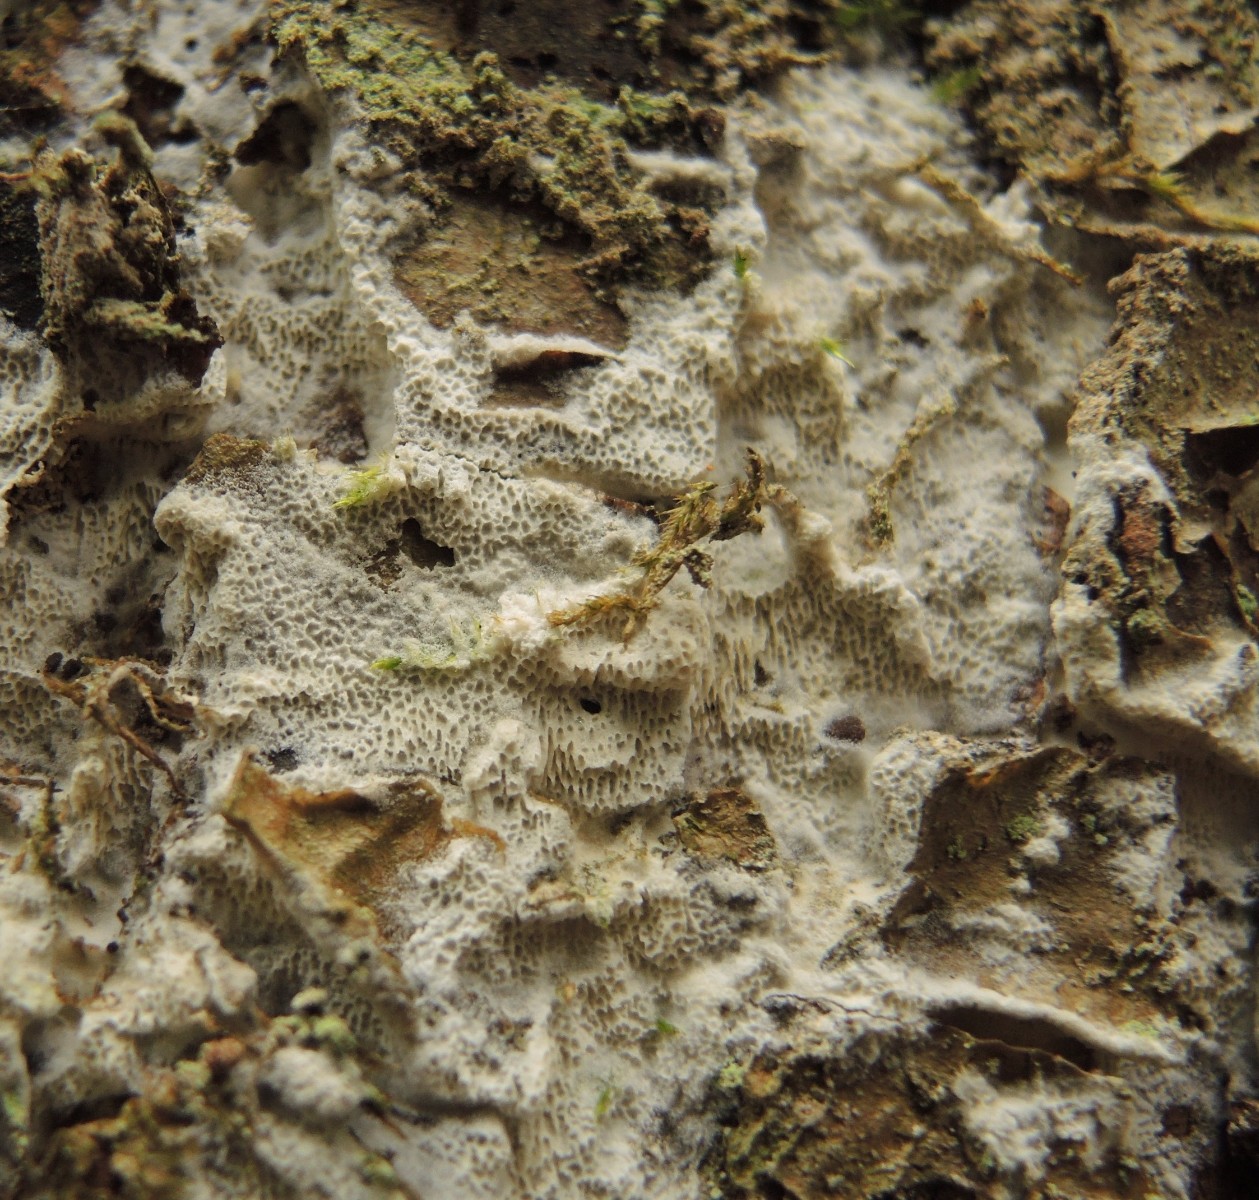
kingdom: Fungi
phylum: Basidiomycota
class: Agaricomycetes
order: Hymenochaetales
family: Schizoporaceae
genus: Xylodon
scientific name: Xylodon subtropicus
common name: labyrint-tandsvamp
